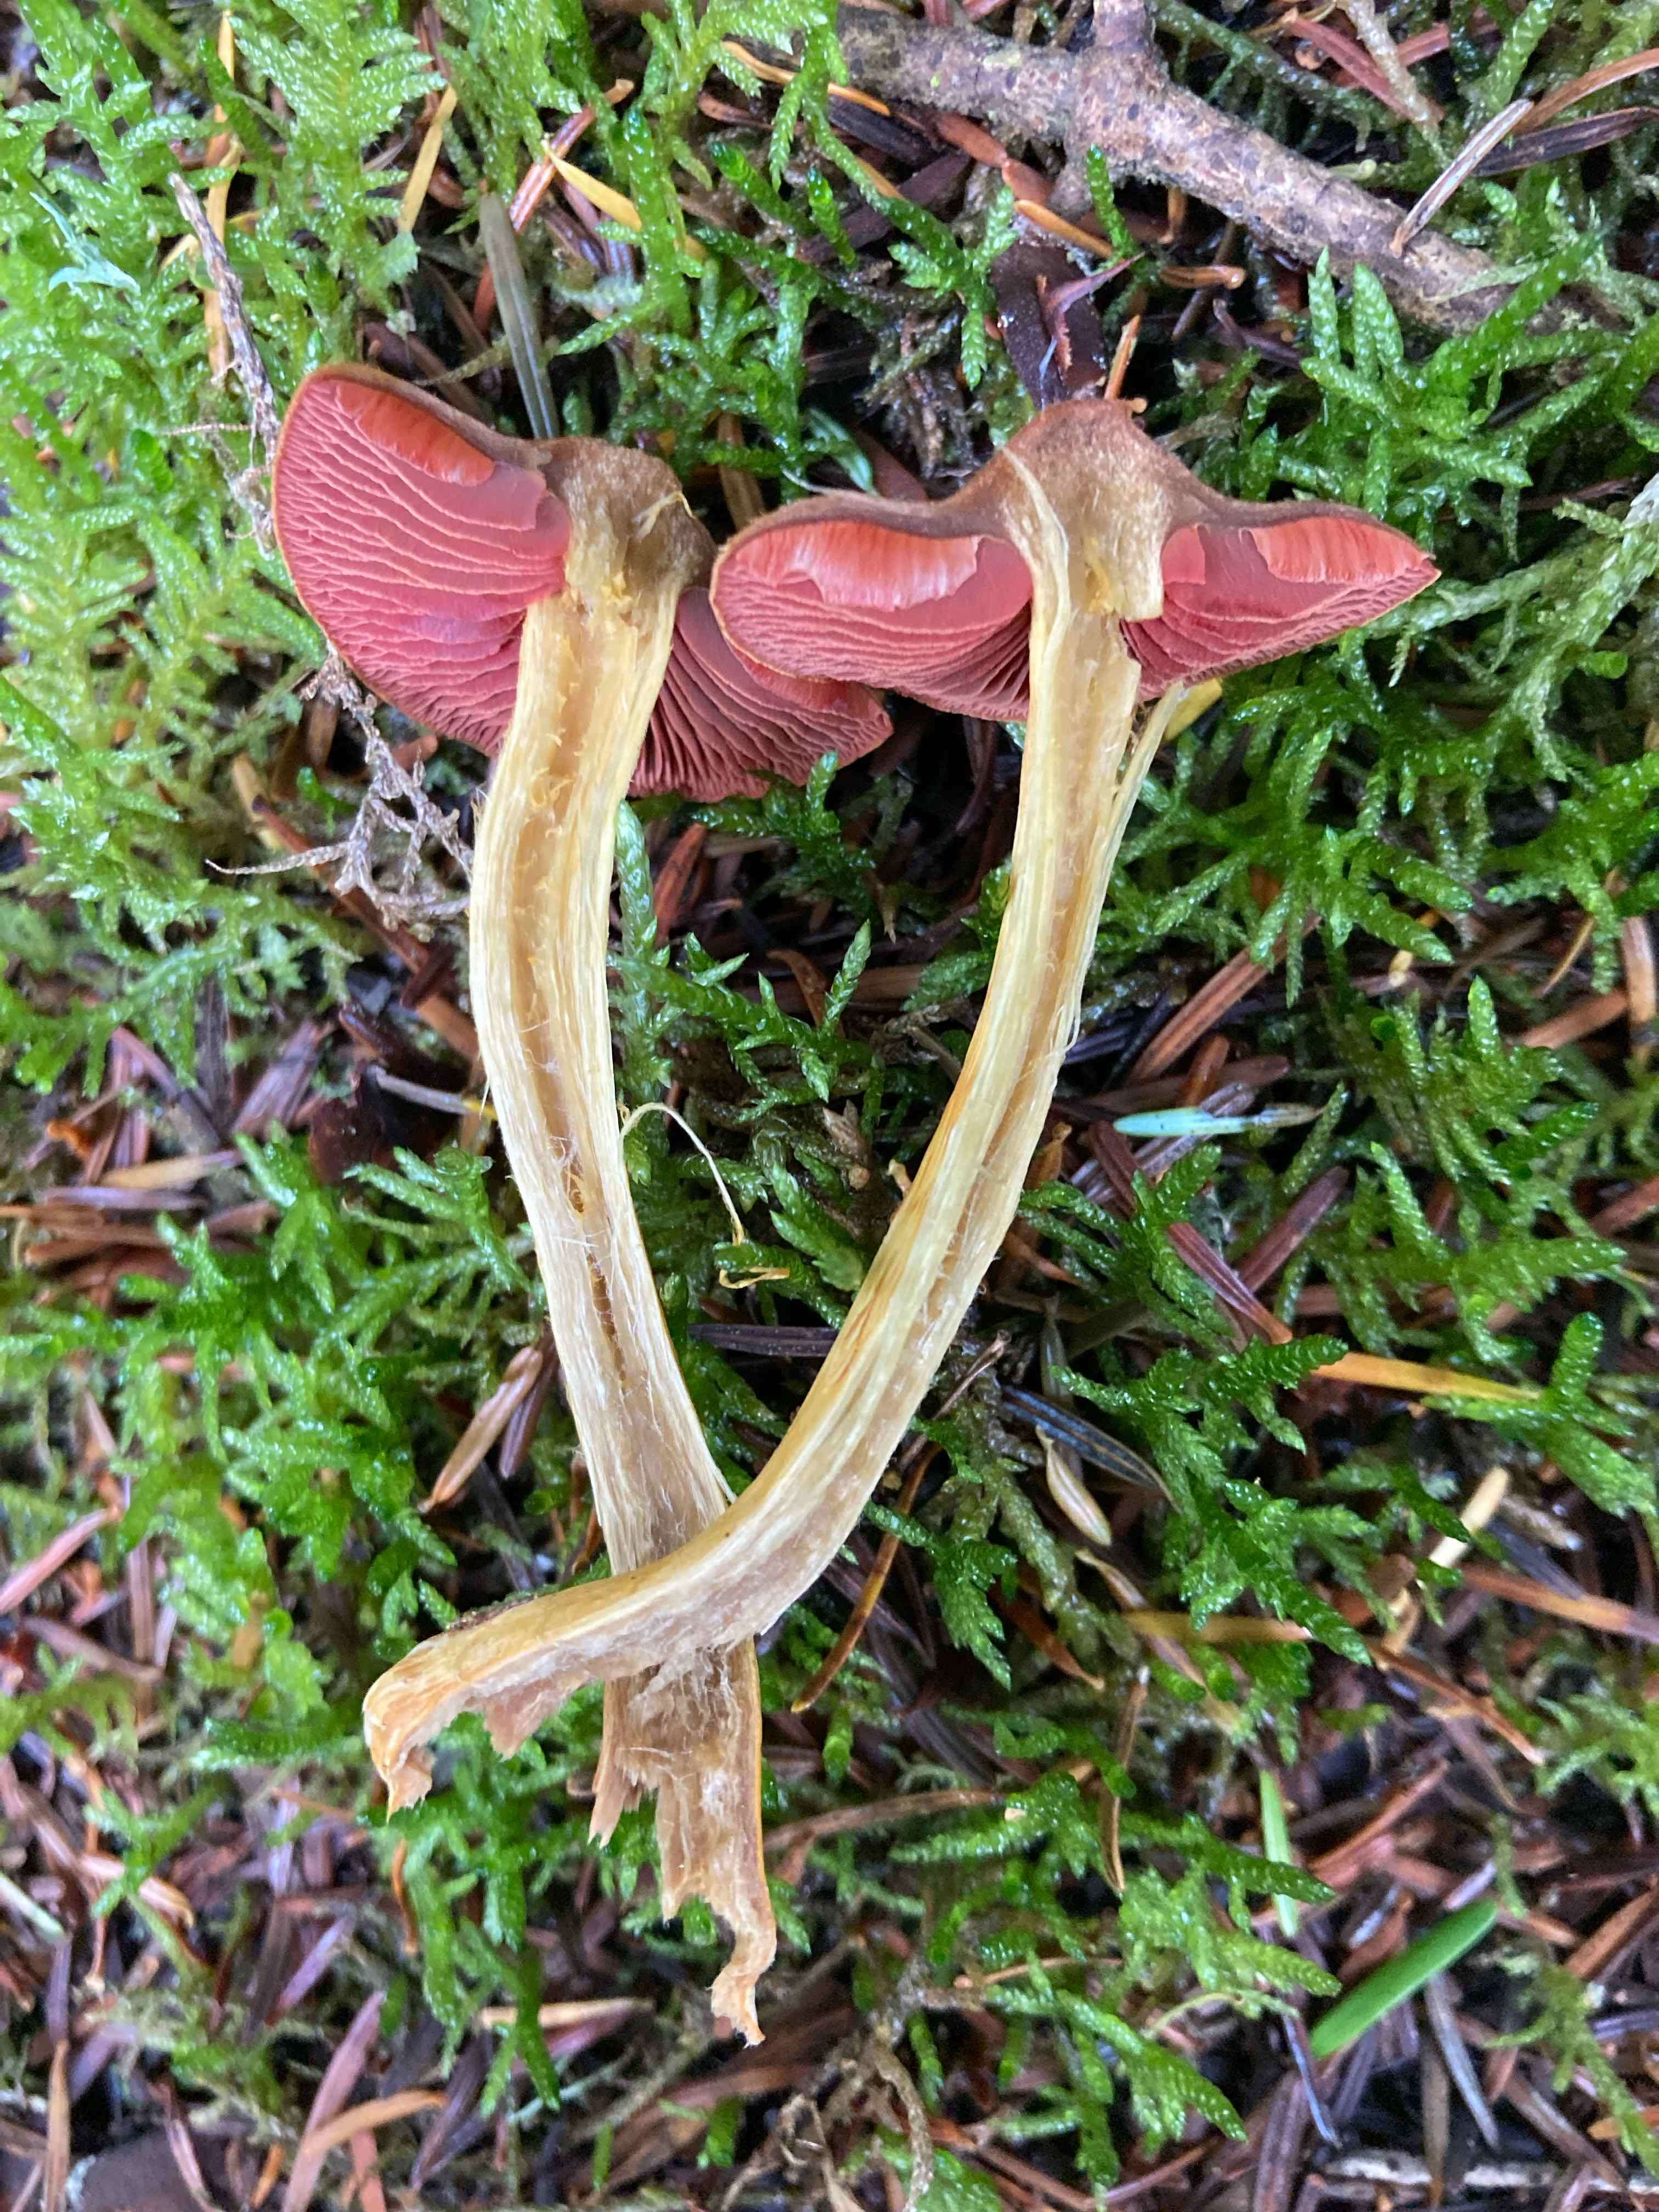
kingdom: Fungi
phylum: Basidiomycota
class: Agaricomycetes
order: Agaricales
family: Cortinariaceae
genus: Cortinarius
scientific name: Cortinarius
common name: cinnoberbladet slørhat
